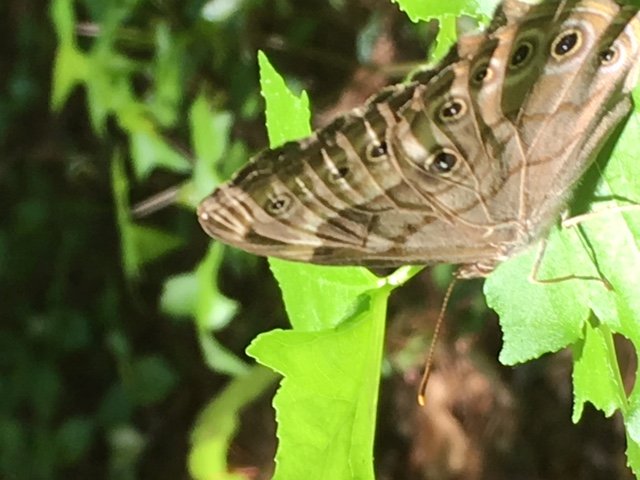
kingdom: Animalia
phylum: Arthropoda
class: Insecta
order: Lepidoptera
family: Nymphalidae
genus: Lethe
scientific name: Lethe creola
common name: Creole Pearly-Eye
